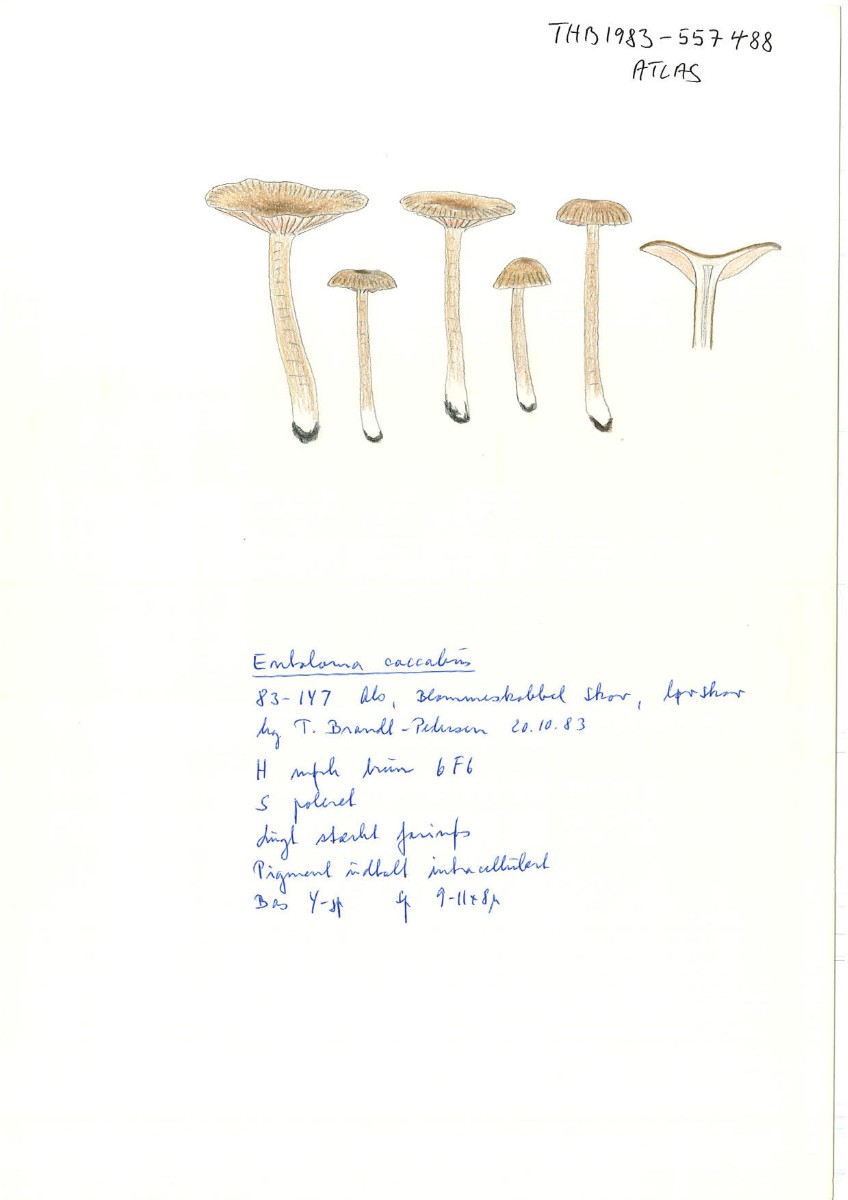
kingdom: Fungi
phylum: Basidiomycota
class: Agaricomycetes
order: Agaricales
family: Entolomataceae
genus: Entoloma
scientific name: Entoloma caccabus
